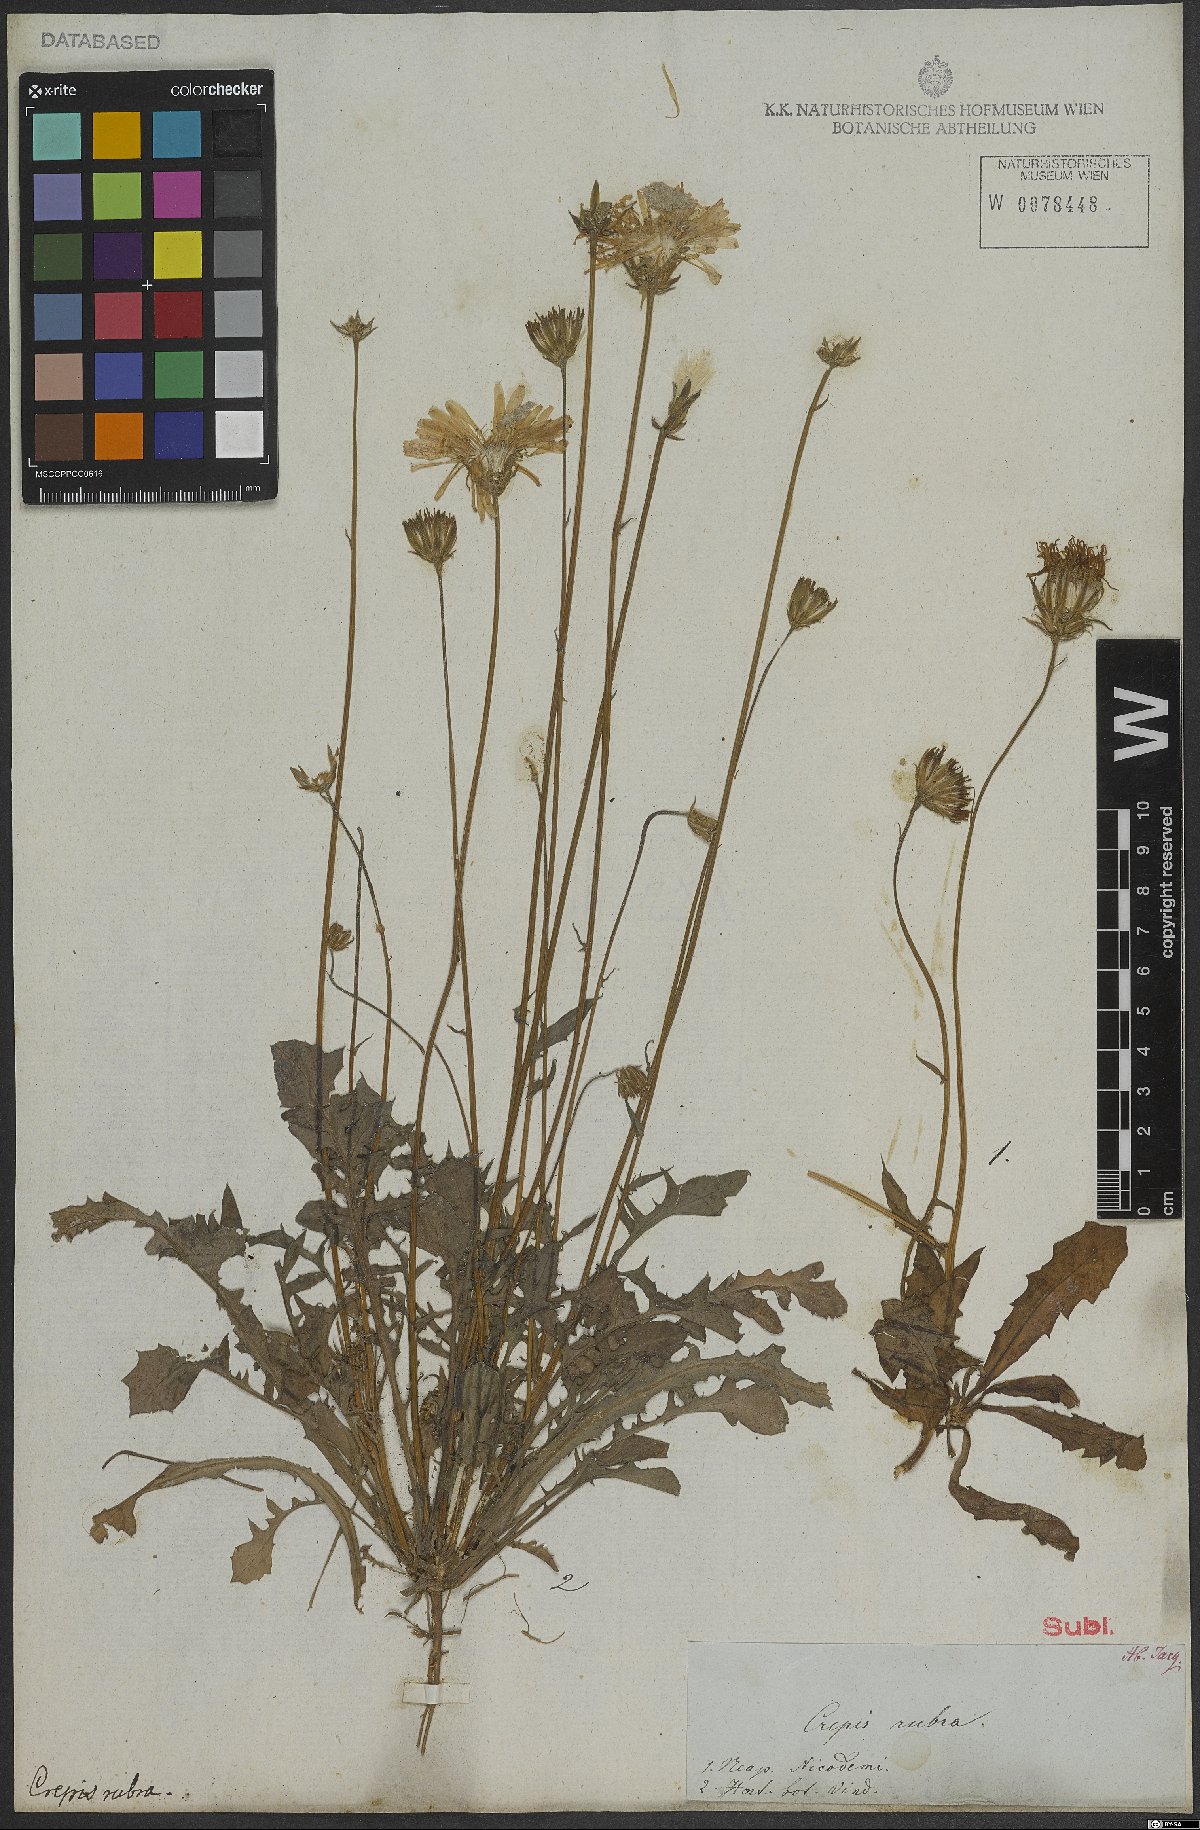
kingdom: Plantae
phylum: Tracheophyta
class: Magnoliopsida
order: Asterales
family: Asteraceae
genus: Crepis
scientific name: Crepis rubra
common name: Pink hawk's-beard
